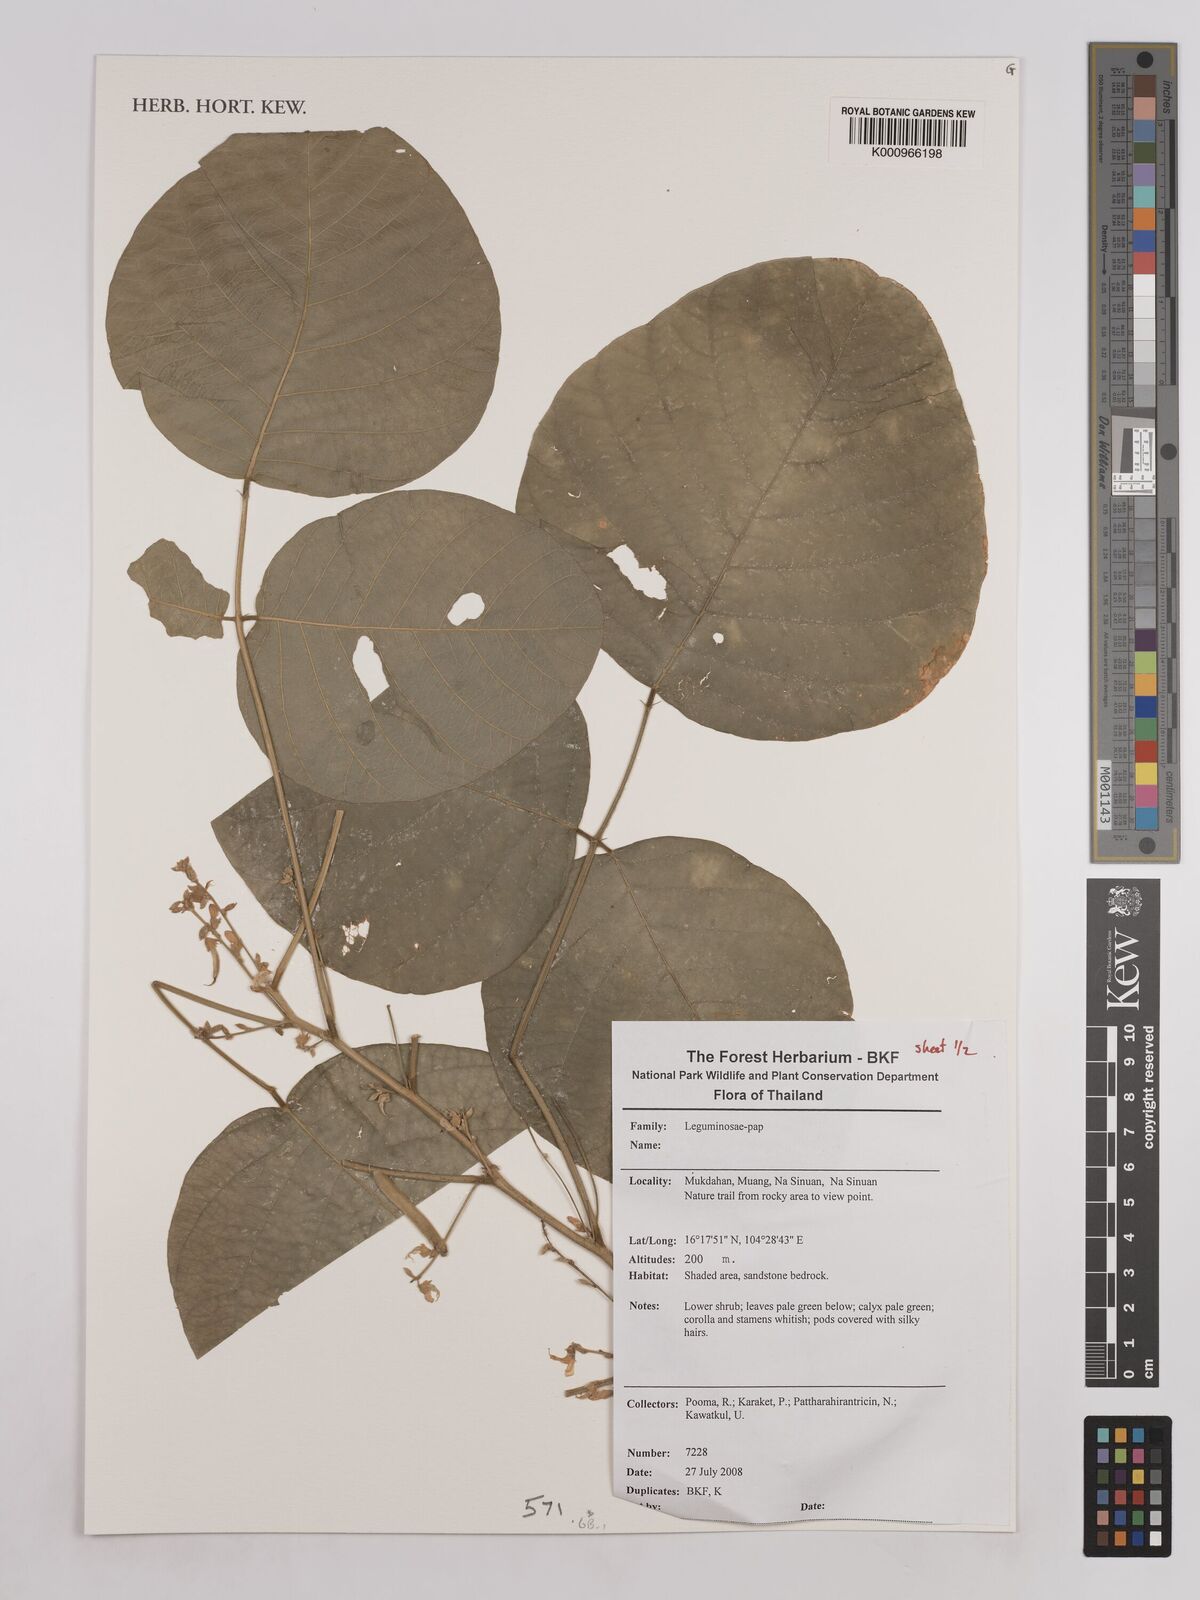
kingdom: Plantae
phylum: Tracheophyta
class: Magnoliopsida
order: Fabales
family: Fabaceae
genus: Pueraria
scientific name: Pueraria
